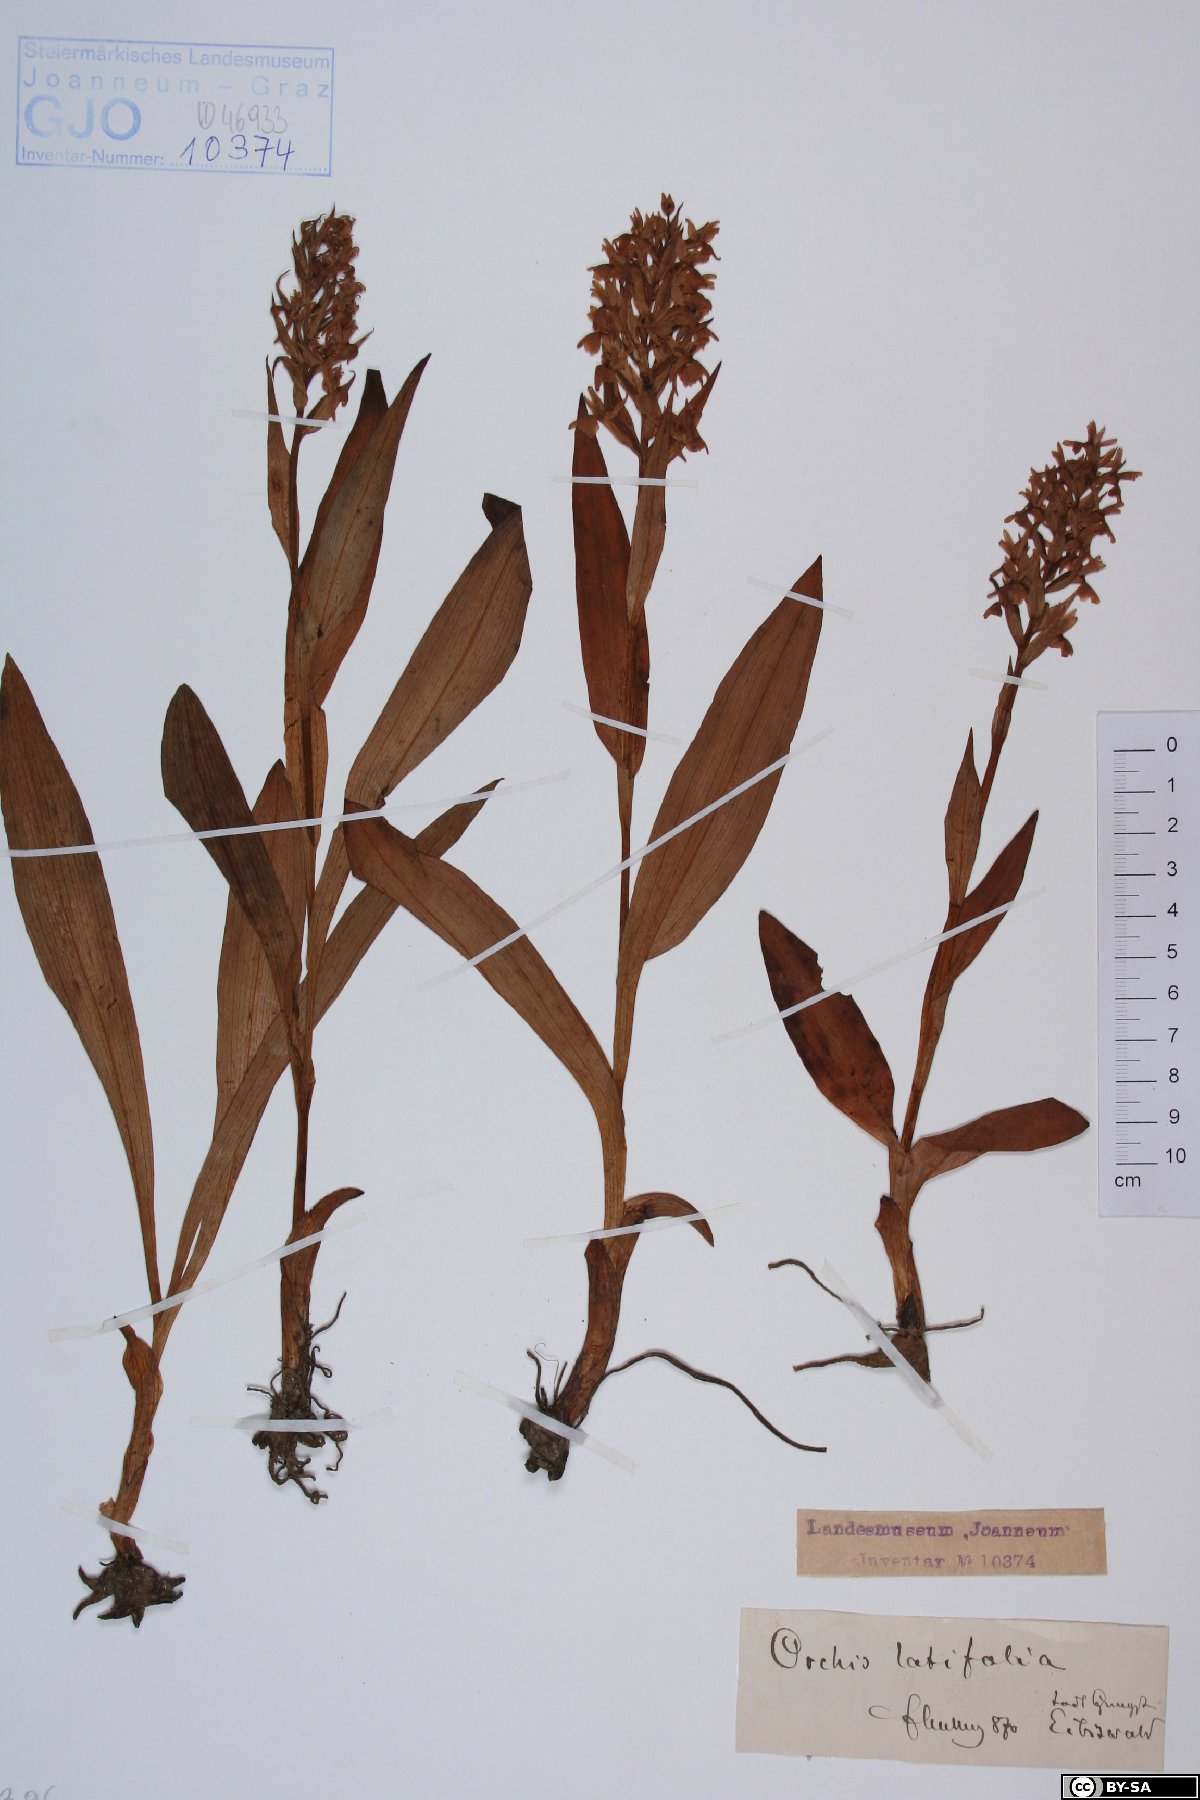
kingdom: Plantae
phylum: Tracheophyta
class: Liliopsida
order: Asparagales
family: Orchidaceae
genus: Dactylorhiza
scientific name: Dactylorhiza incarnata
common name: Early marsh-orchid
